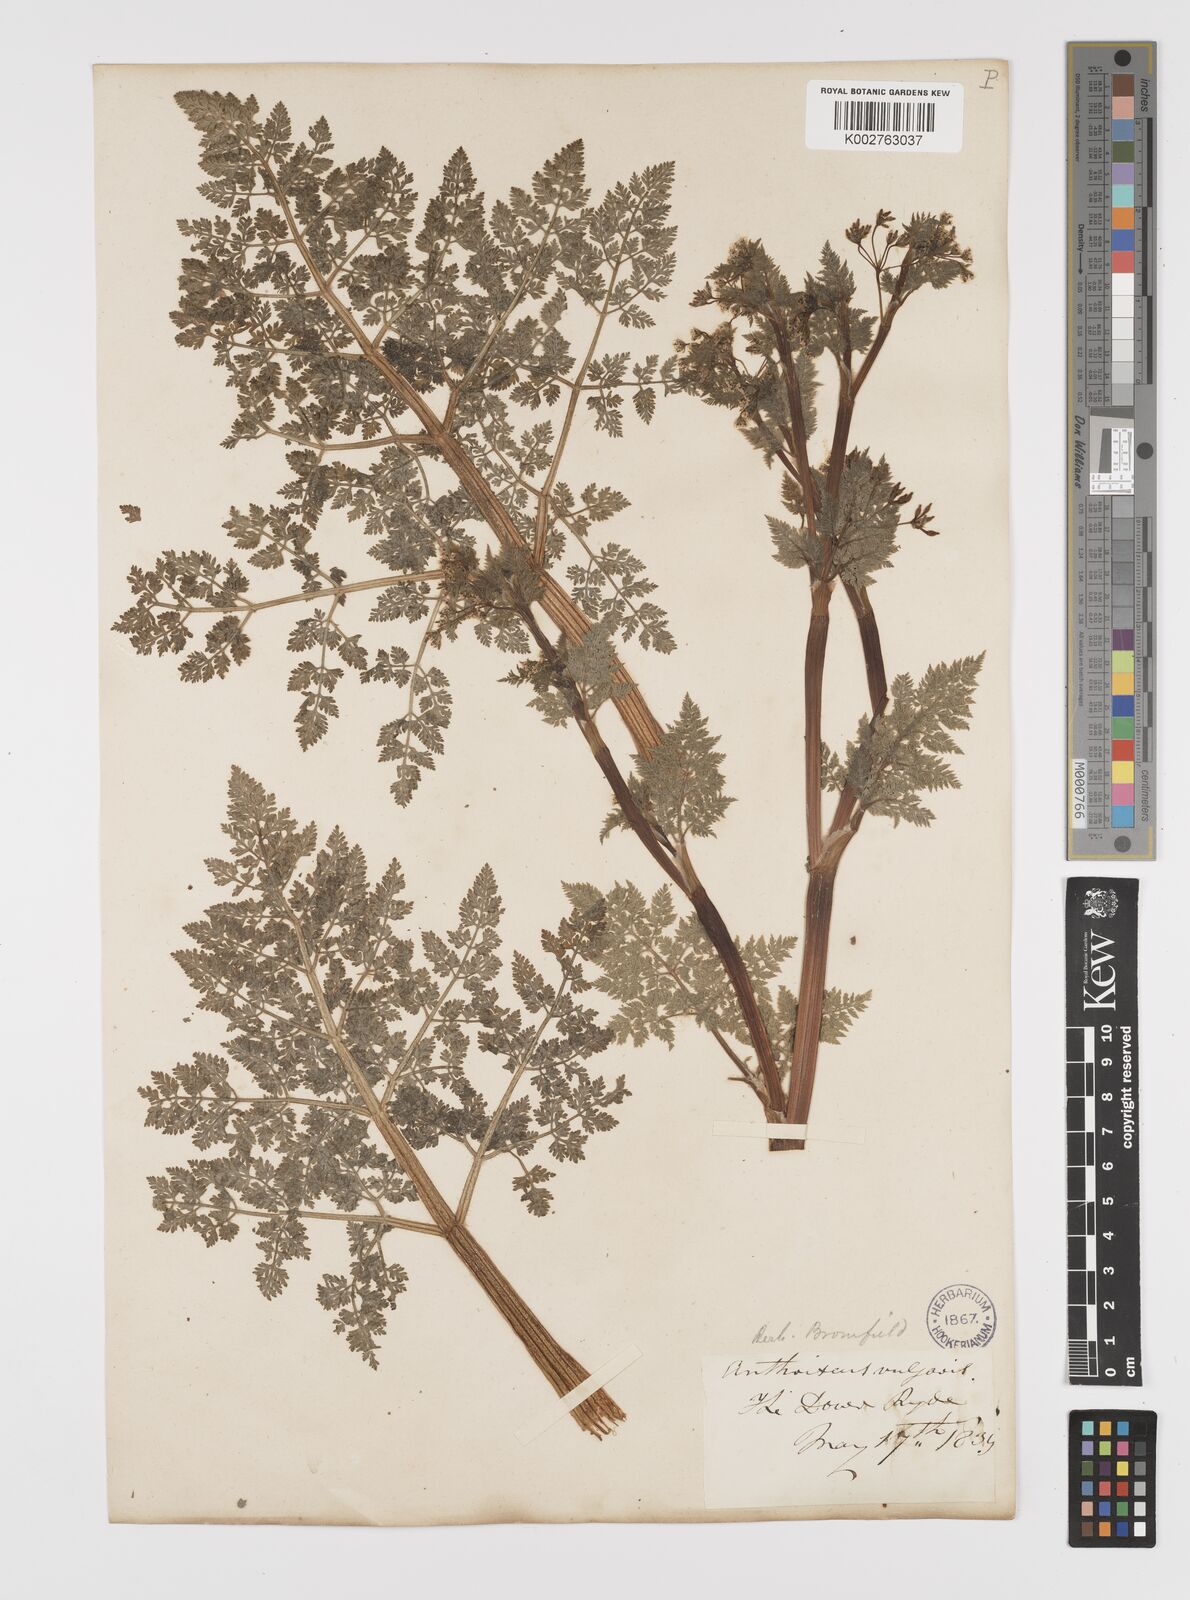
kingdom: Plantae
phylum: Tracheophyta
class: Magnoliopsida
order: Apiales
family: Apiaceae
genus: Anthriscus
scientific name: Anthriscus caucalis
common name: Bur chervil
